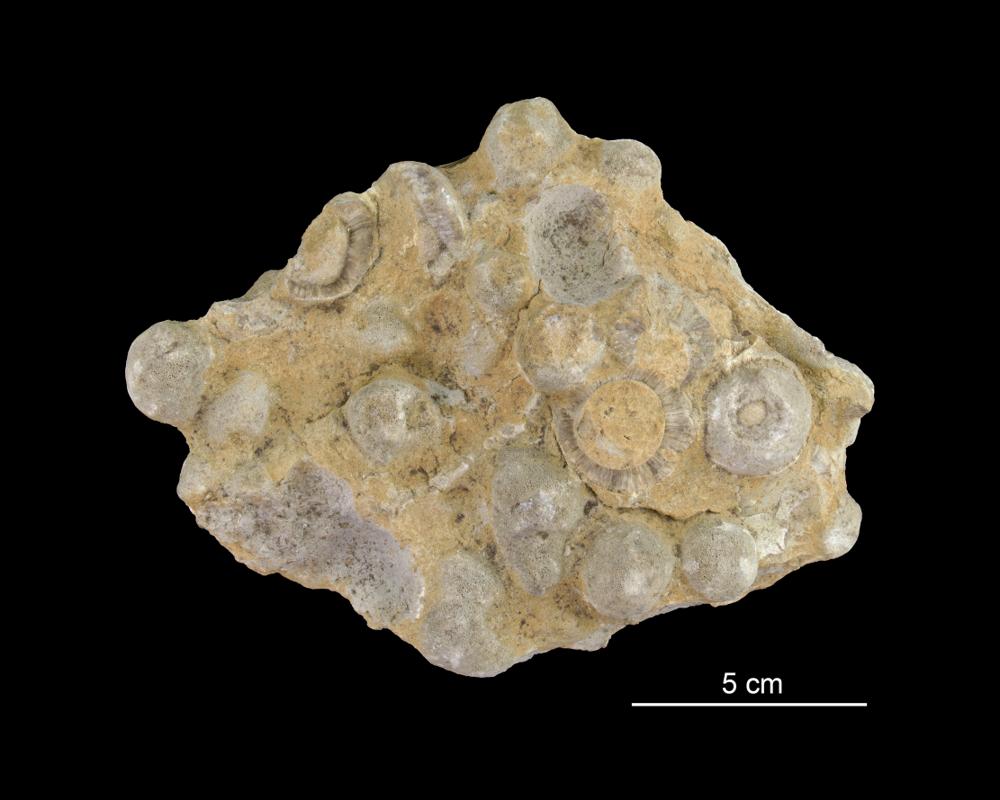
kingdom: Animalia
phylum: Echinodermata
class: Crinoidea
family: Cyclocrinidae
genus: Cyclocrinus
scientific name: Cyclocrinus
